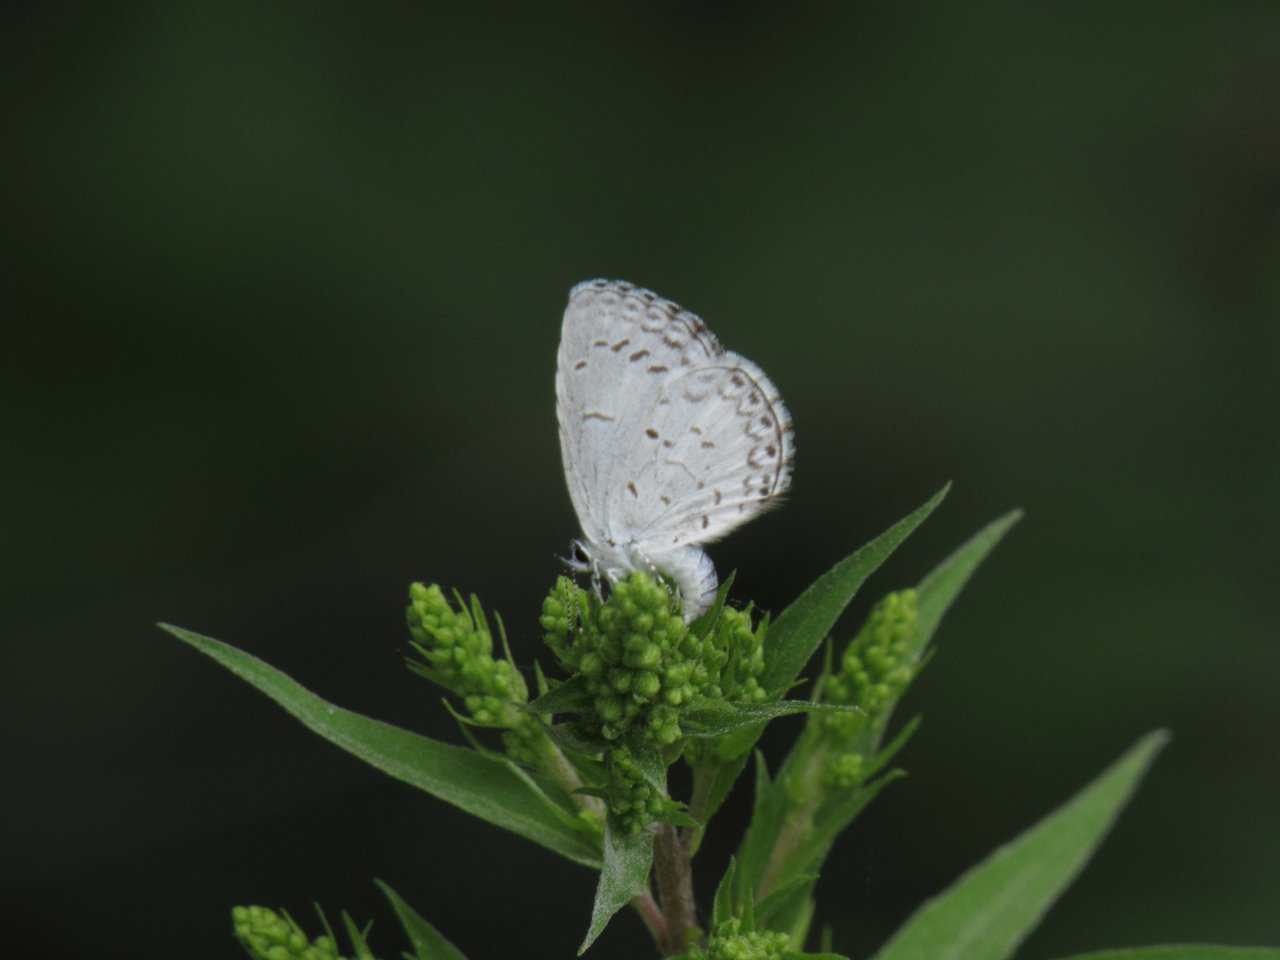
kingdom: Animalia
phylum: Arthropoda
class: Insecta
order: Lepidoptera
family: Lycaenidae
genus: Cyaniris
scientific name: Cyaniris neglecta
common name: Summer Azure
